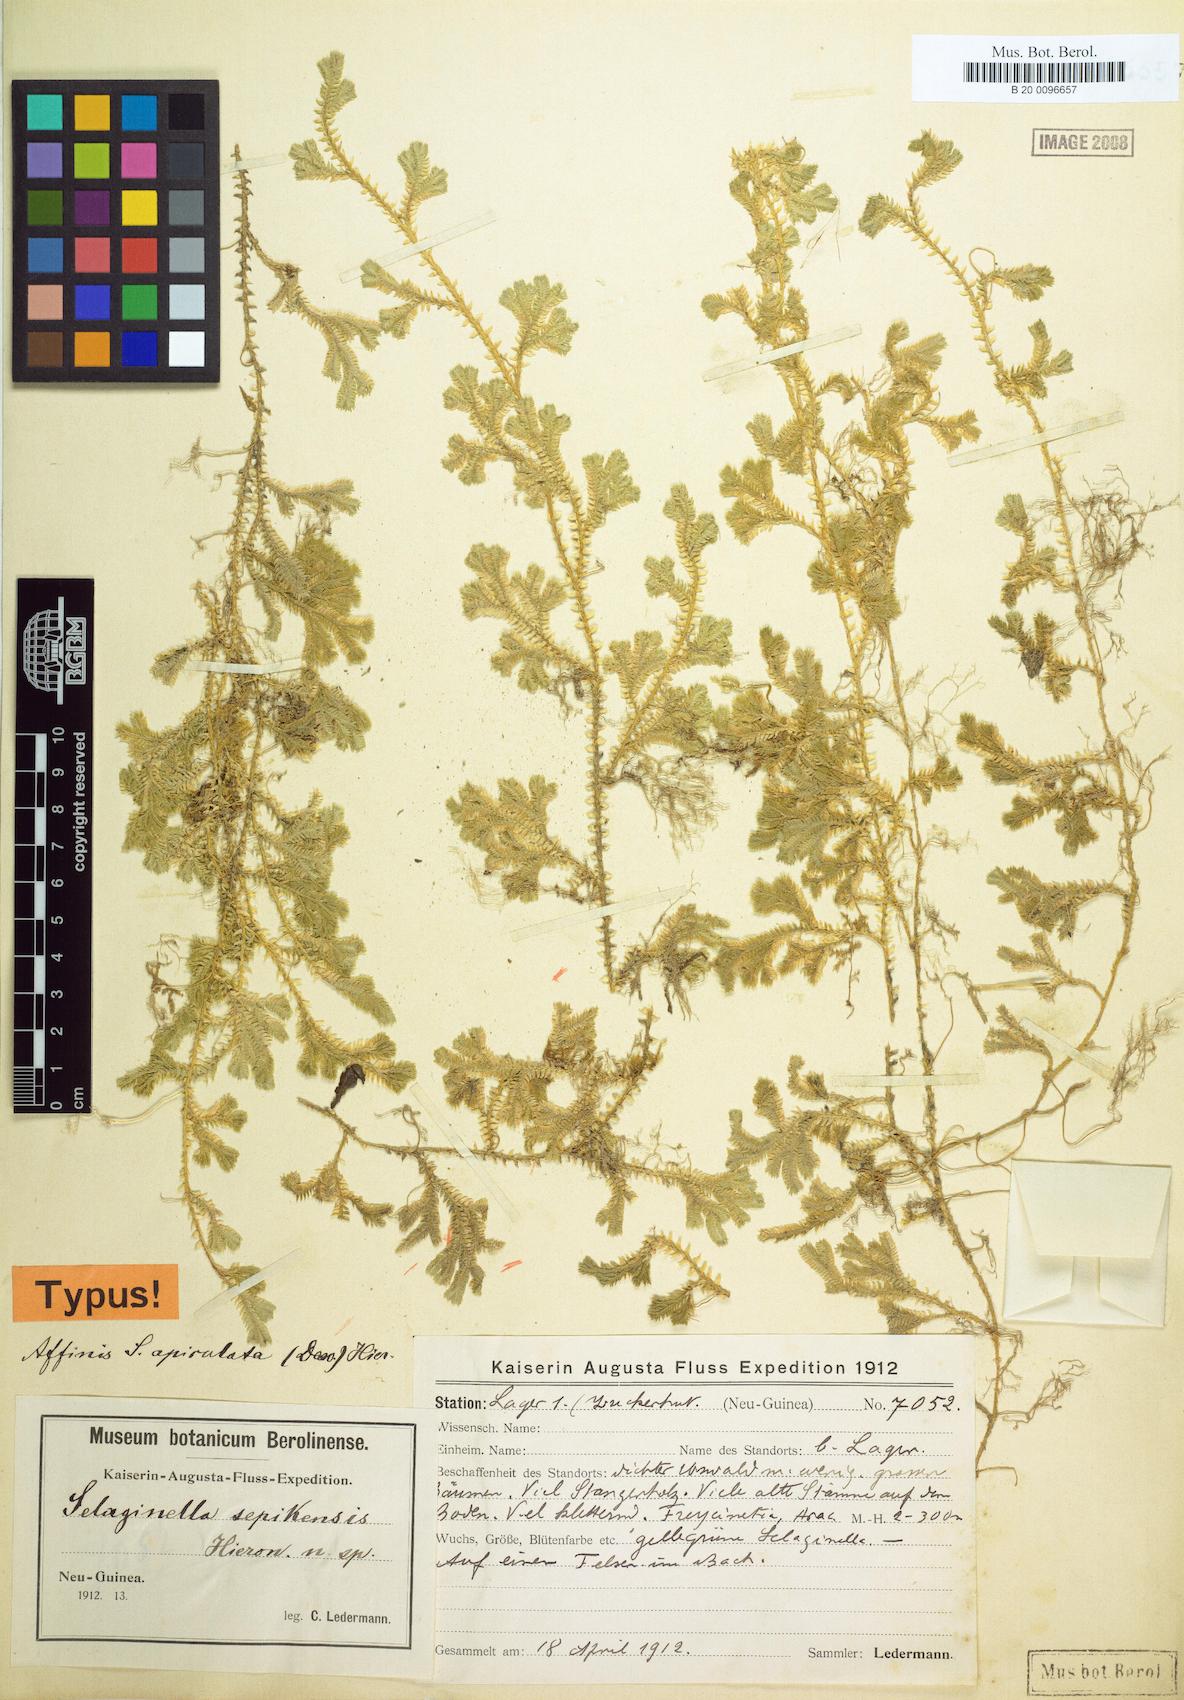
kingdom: Plantae
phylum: Tracheophyta
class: Lycopodiopsida
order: Selaginellales
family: Selaginellaceae
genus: Selaginella
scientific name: Selaginella sepikensis
